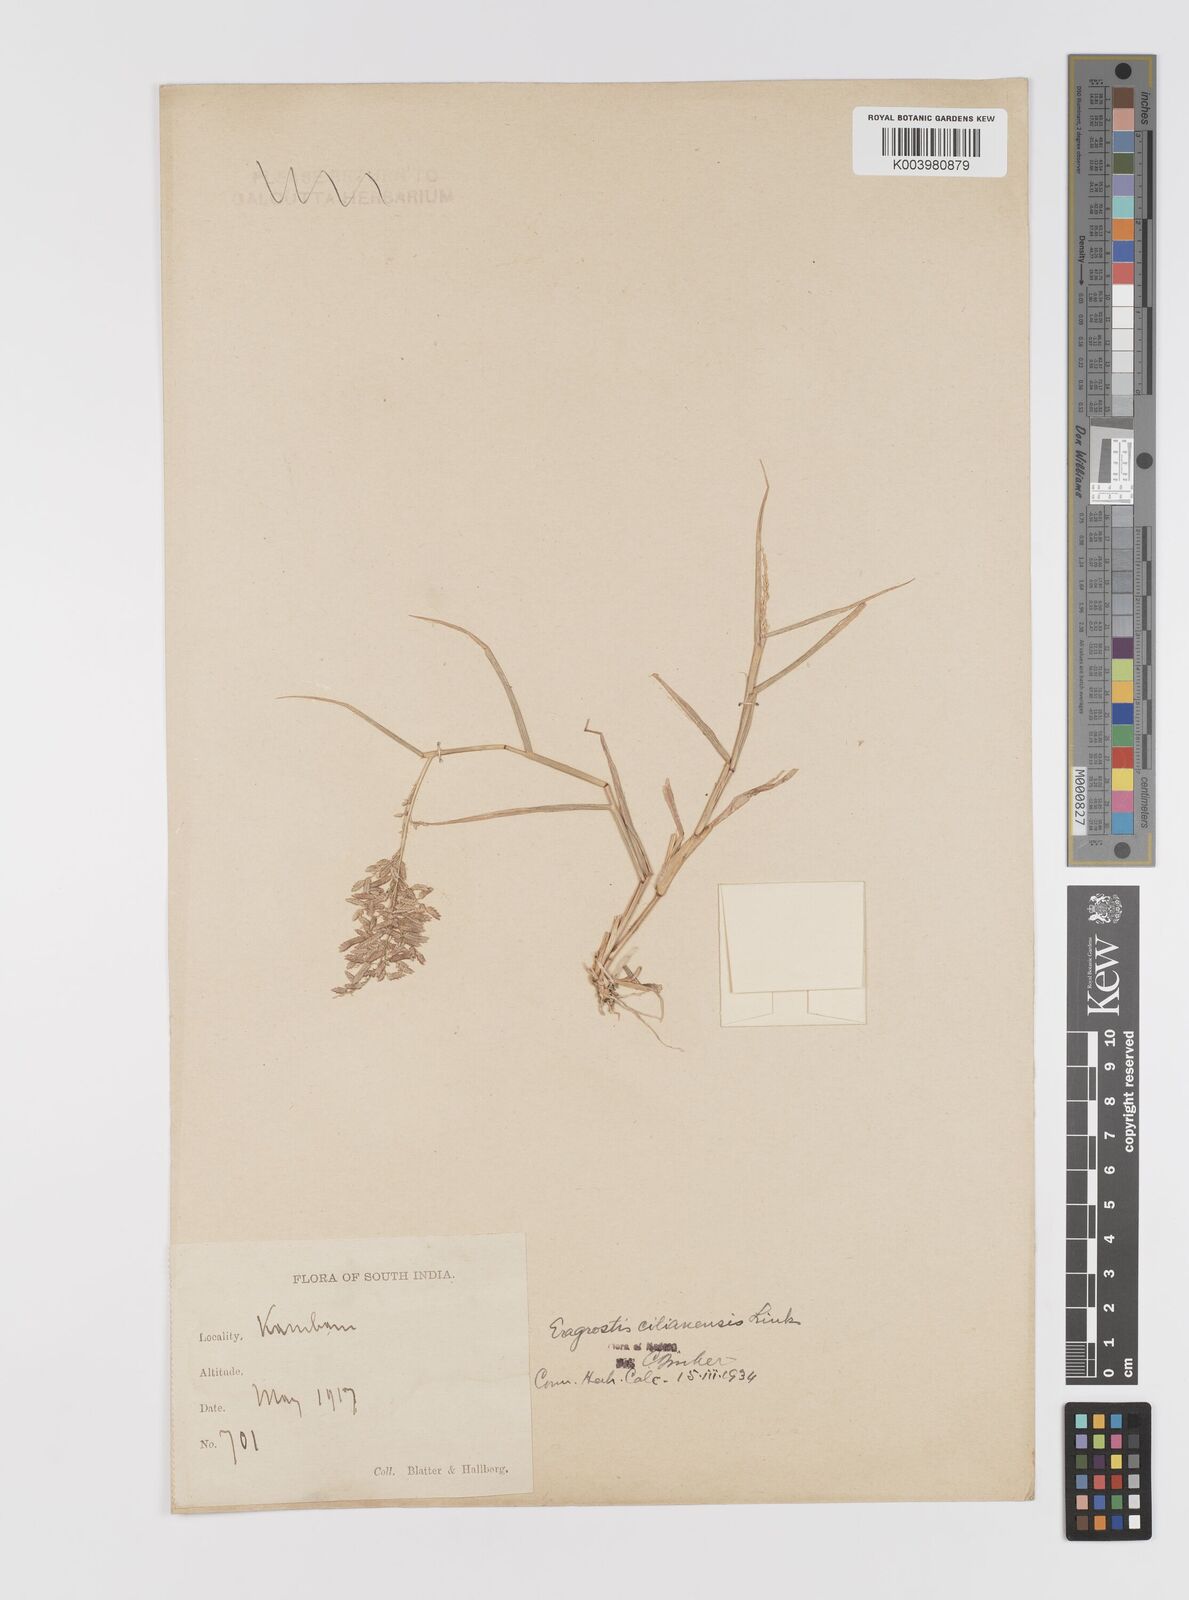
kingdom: Plantae
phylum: Tracheophyta
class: Liliopsida
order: Poales
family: Poaceae
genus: Eragrostis
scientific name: Eragrostis cilianensis
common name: Stinkgrass
